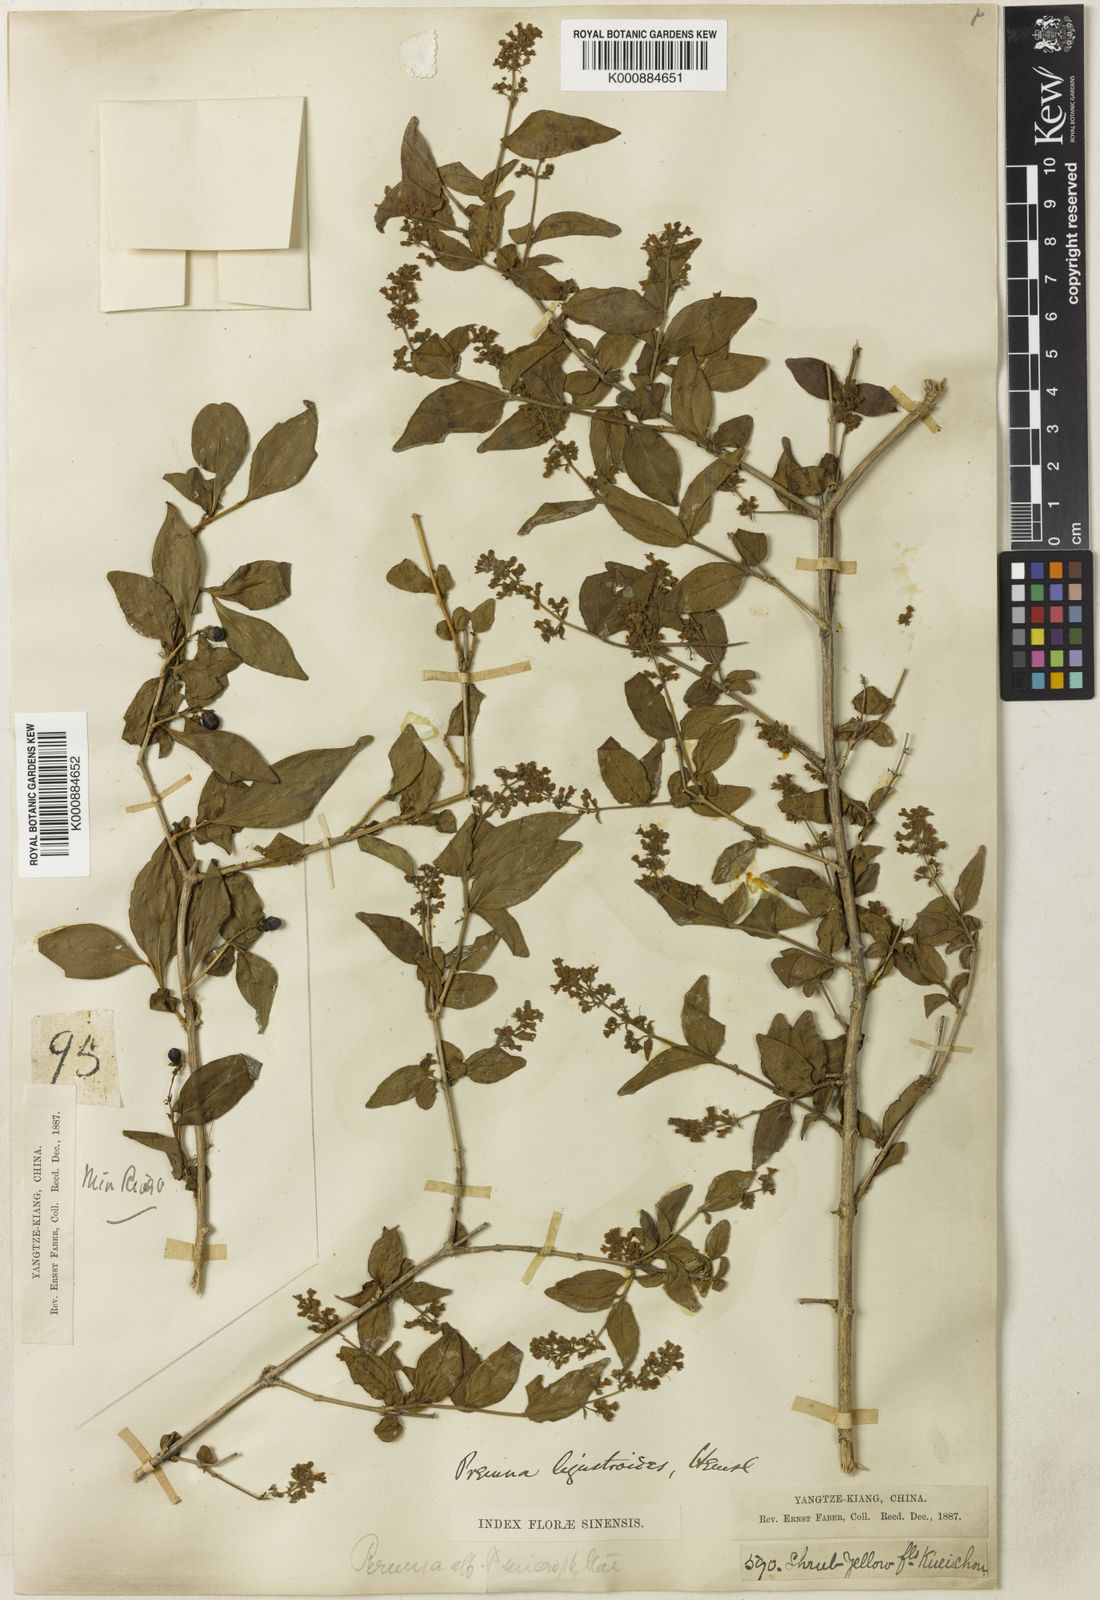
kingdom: Plantae
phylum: Tracheophyta
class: Magnoliopsida
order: Lamiales
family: Lamiaceae
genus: Premna
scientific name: Premna ligustroides
